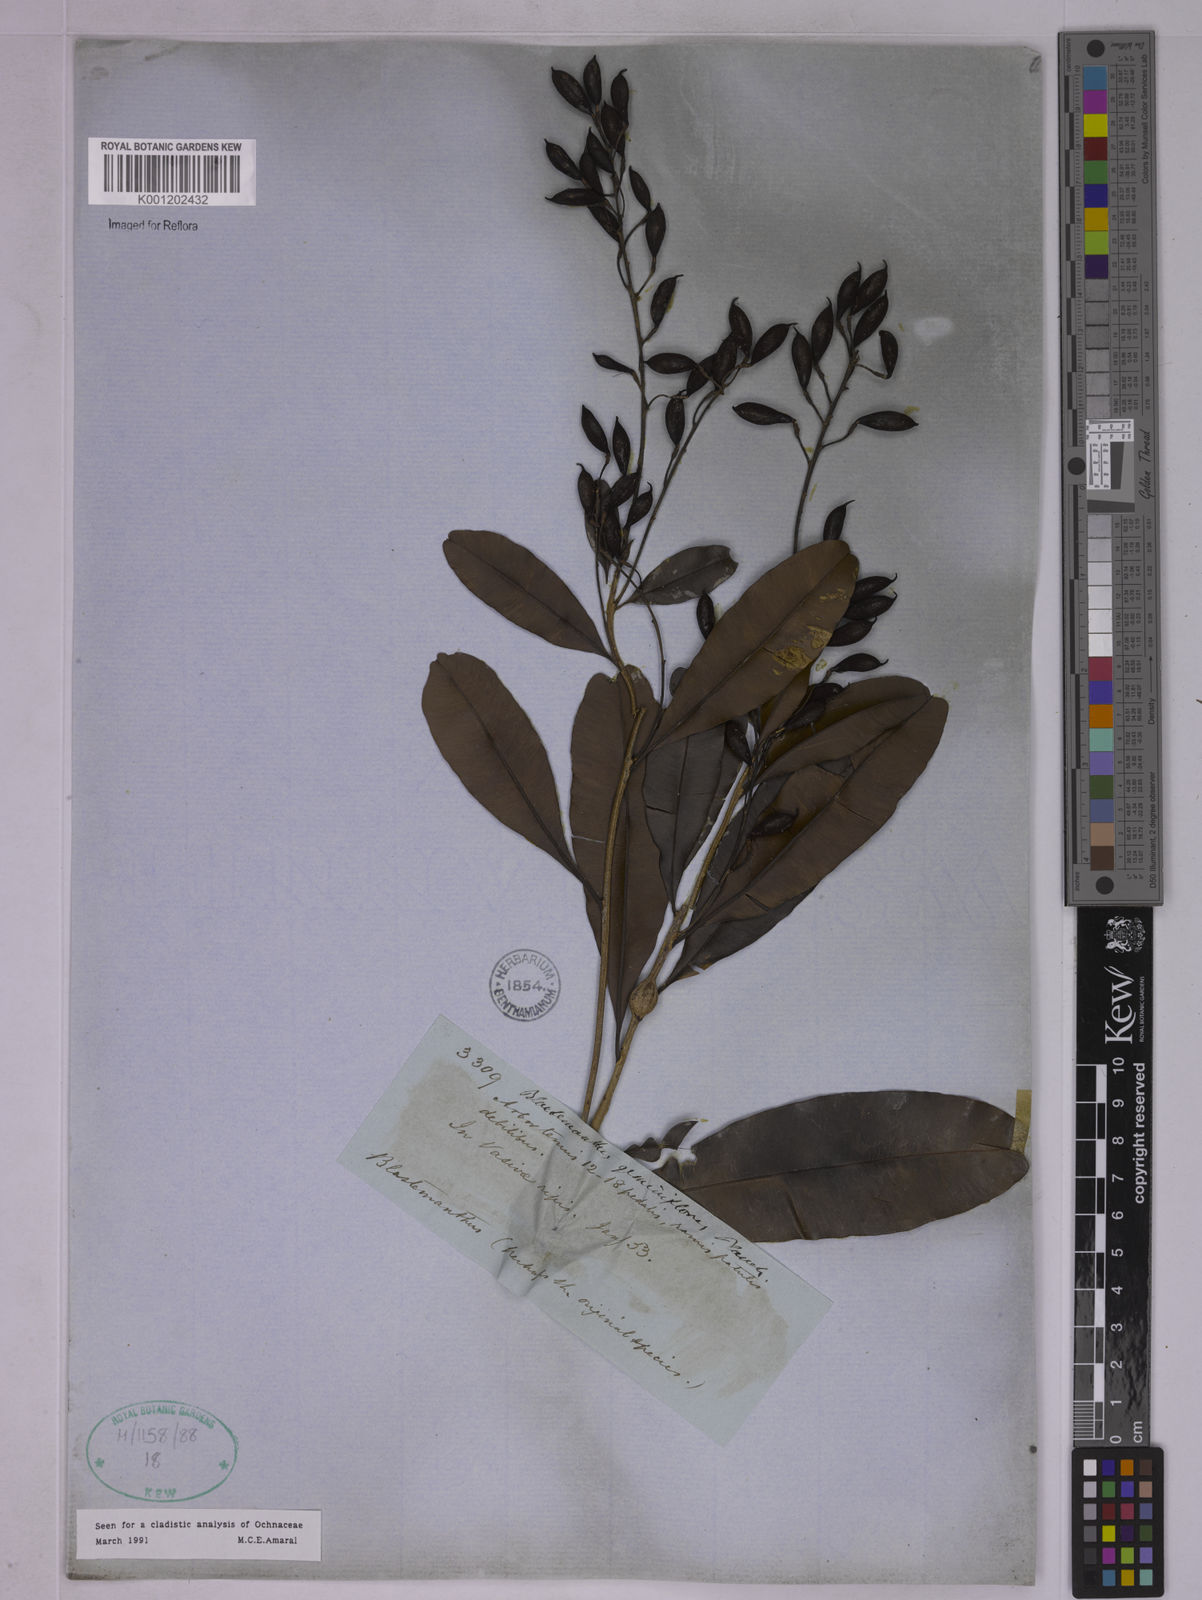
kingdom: Plantae
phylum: Tracheophyta
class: Magnoliopsida
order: Malpighiales
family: Ochnaceae
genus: Blastemanthus
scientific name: Blastemanthus gemmiflorus
